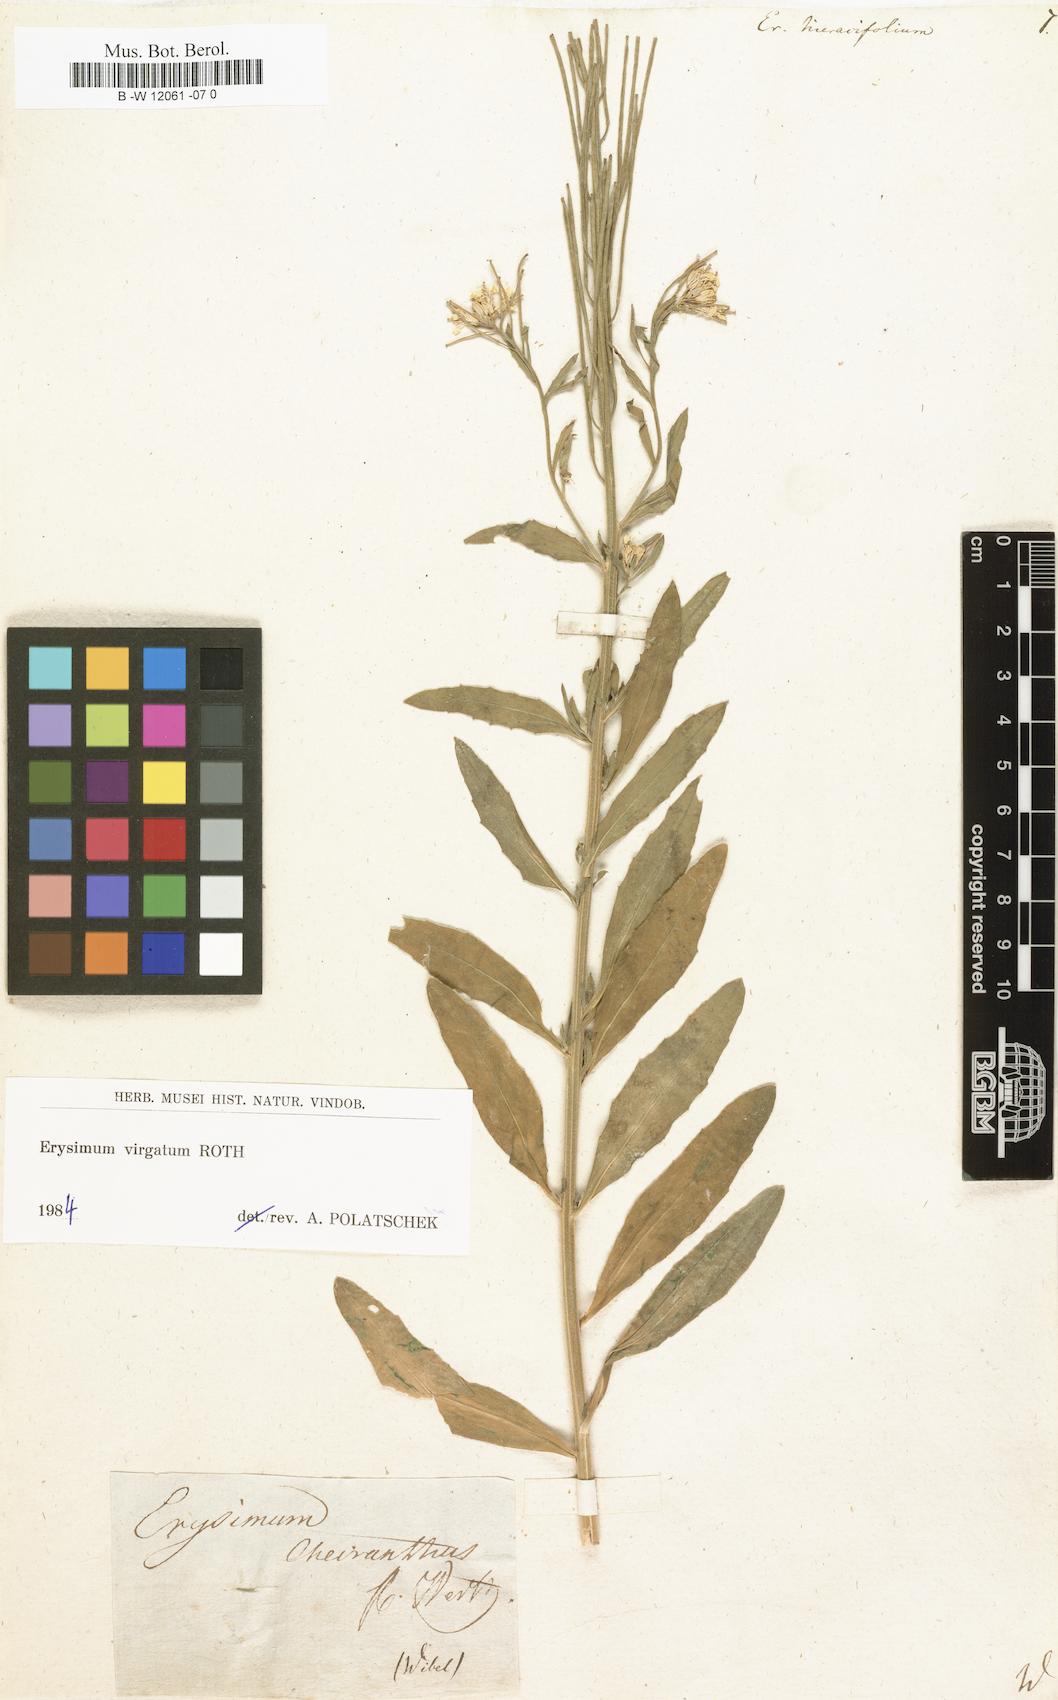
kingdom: Plantae
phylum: Tracheophyta
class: Magnoliopsida
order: Brassicales
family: Brassicaceae
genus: Erysimum
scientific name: Erysimum hieraciifolium
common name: European wallflower
